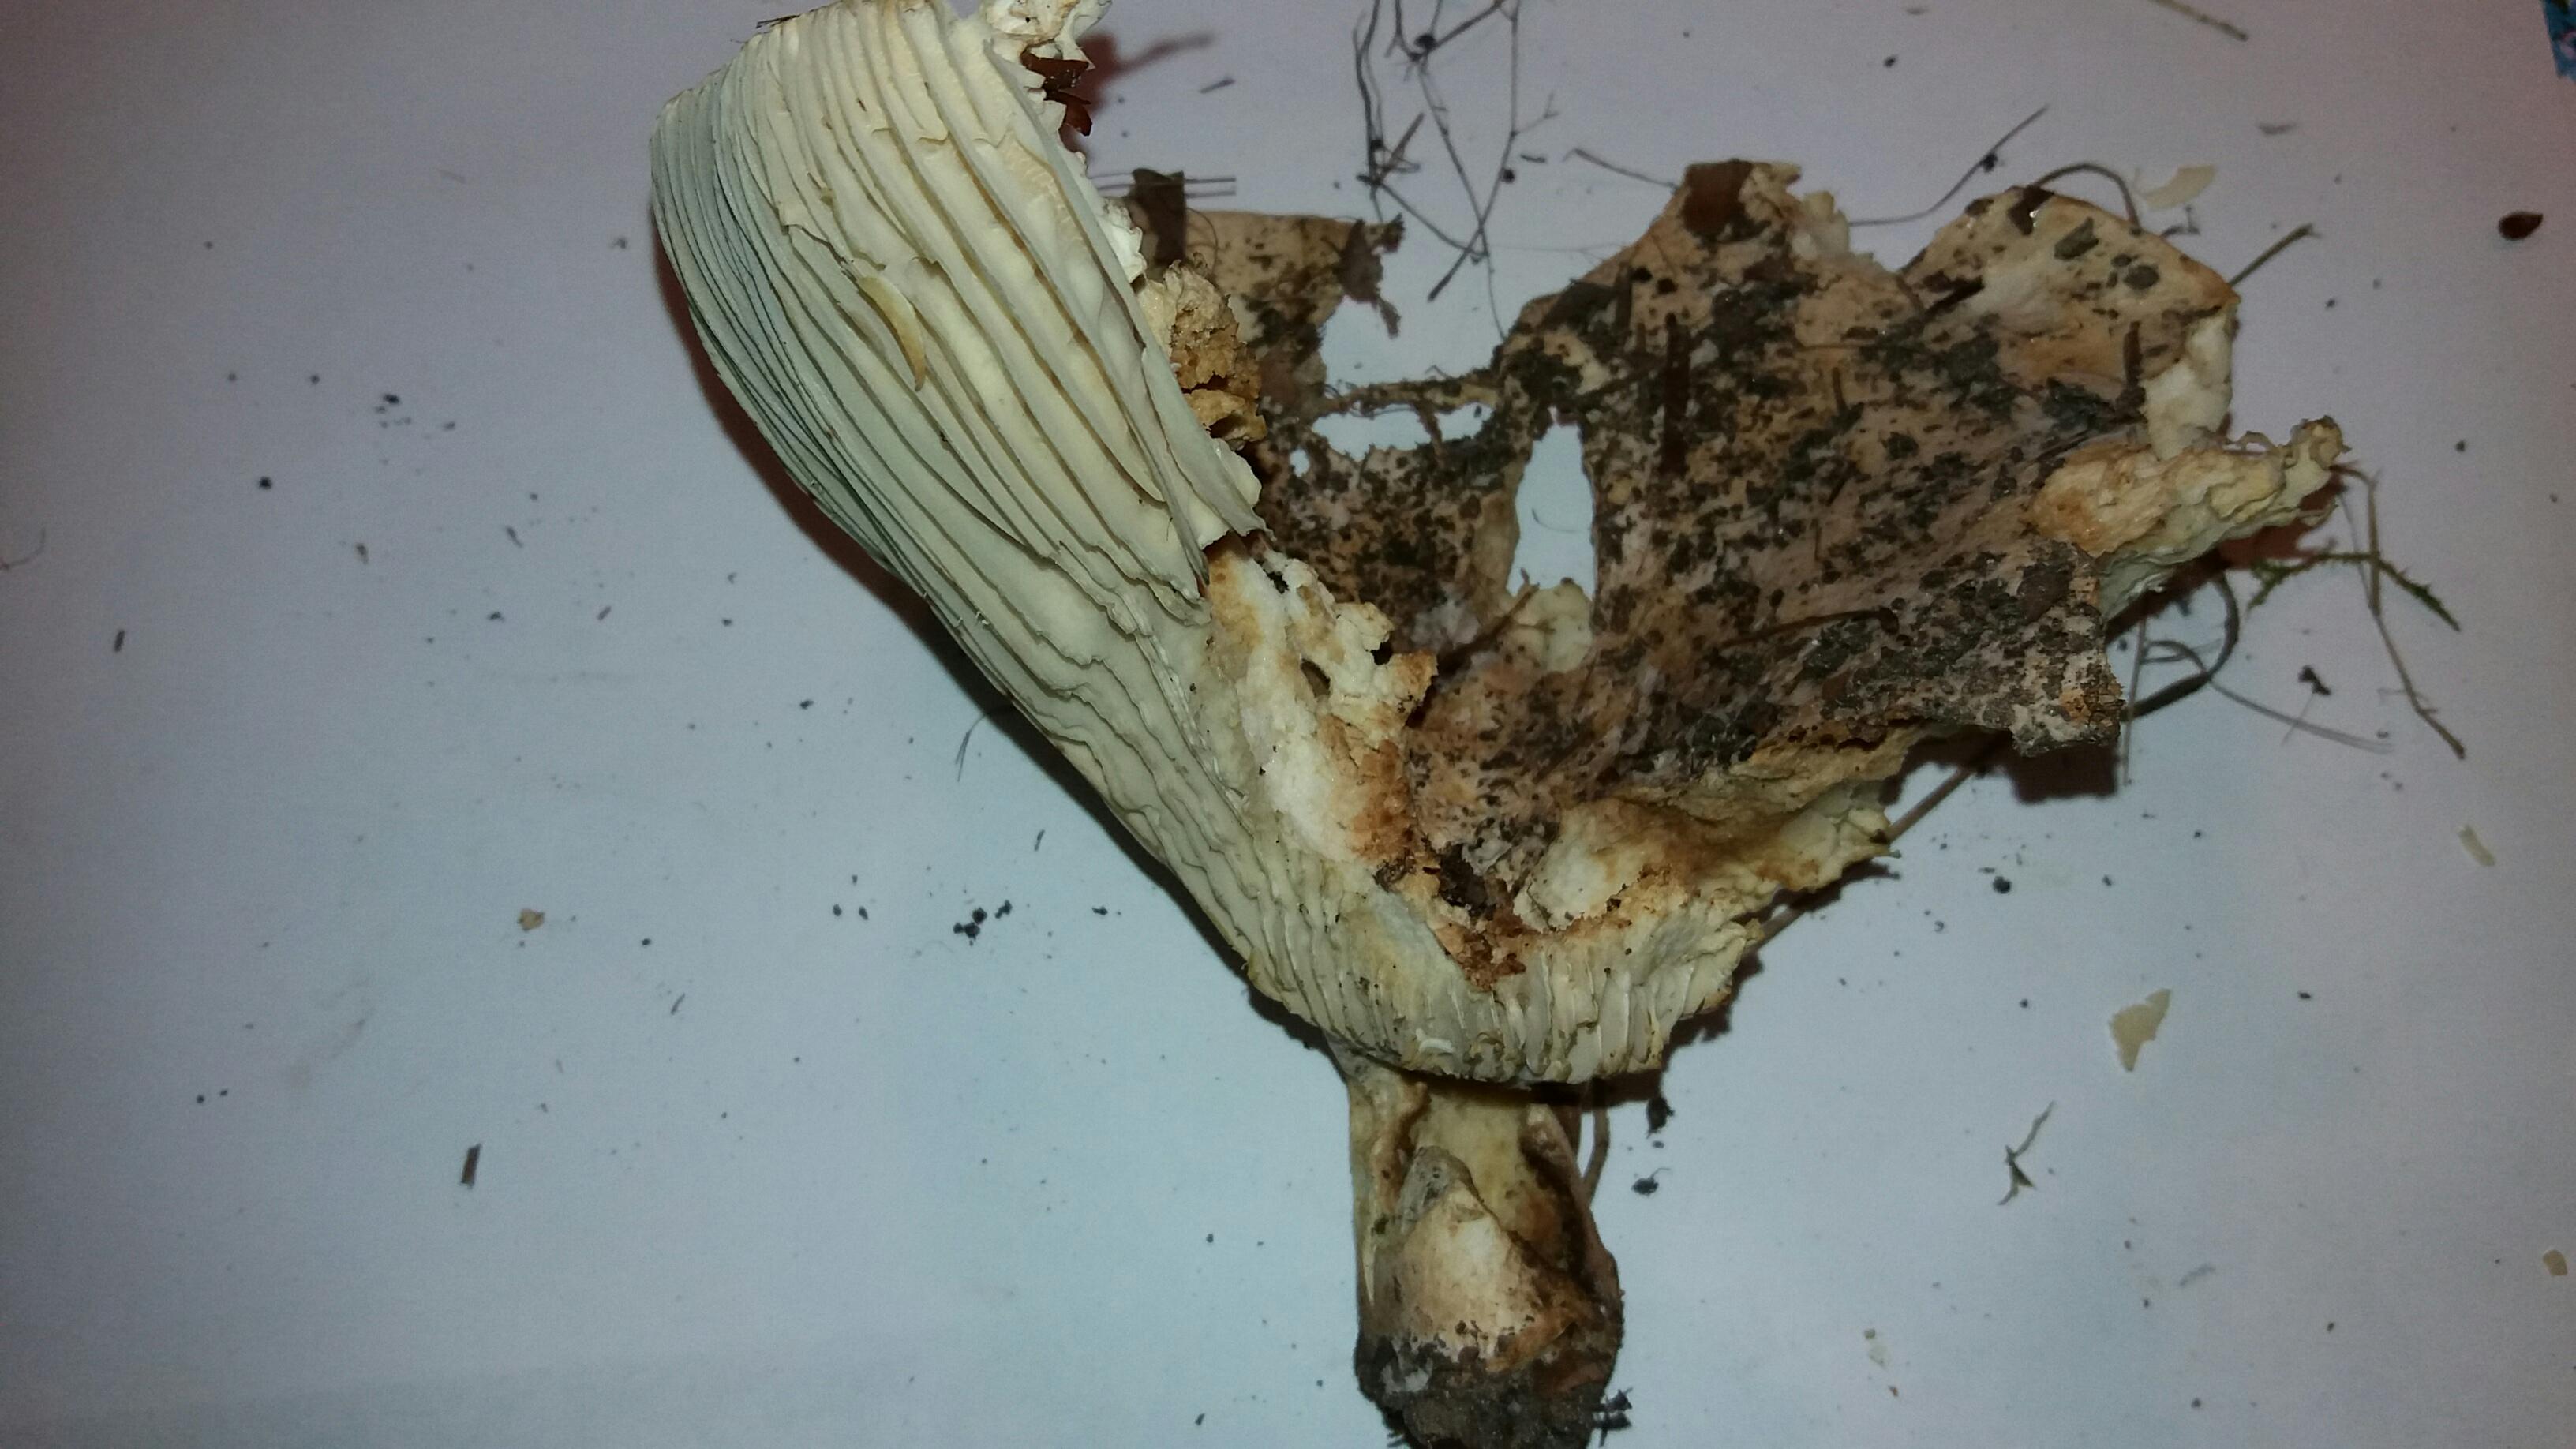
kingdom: Fungi
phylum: Basidiomycota
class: Agaricomycetes
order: Russulales
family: Russulaceae
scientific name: Russulaceae
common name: skørhatfamilien
